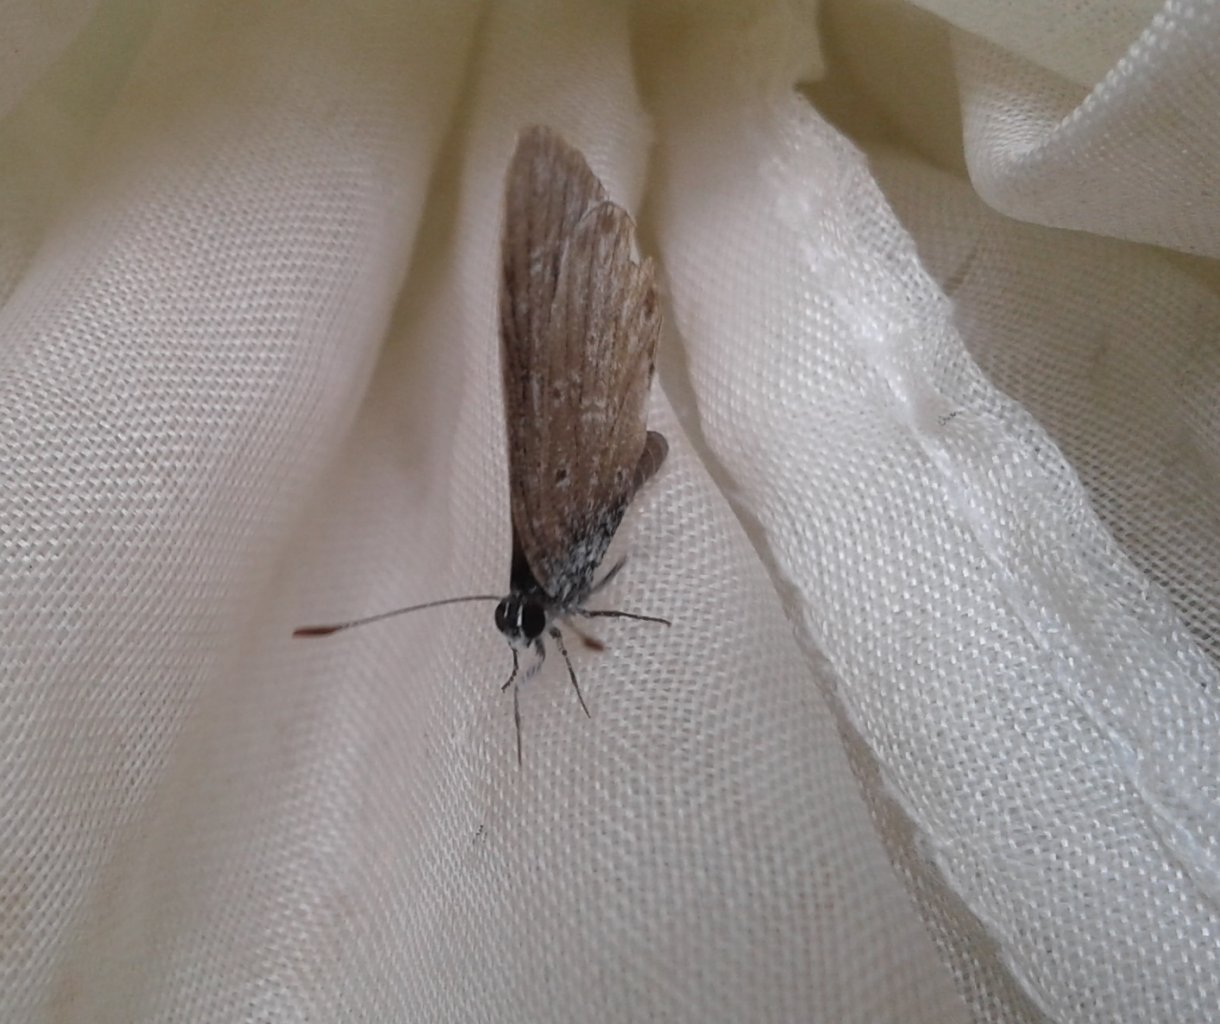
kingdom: Animalia
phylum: Arthropoda
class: Insecta
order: Lepidoptera
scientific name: Lepidoptera
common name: Butterflies
